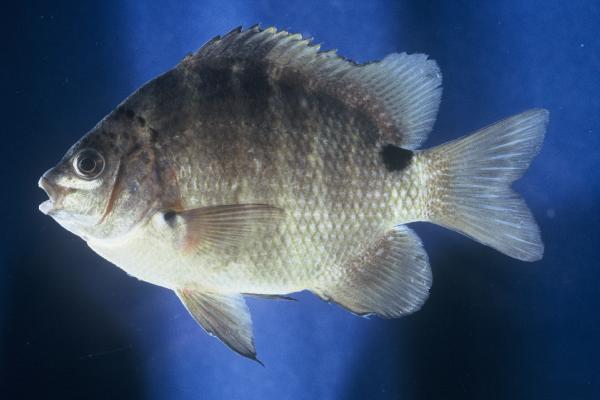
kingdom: Animalia
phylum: Chordata
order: Perciformes
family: Pomacentridae
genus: Abudefduf
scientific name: Abudefduf sordidus
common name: Blackspot sergeant
